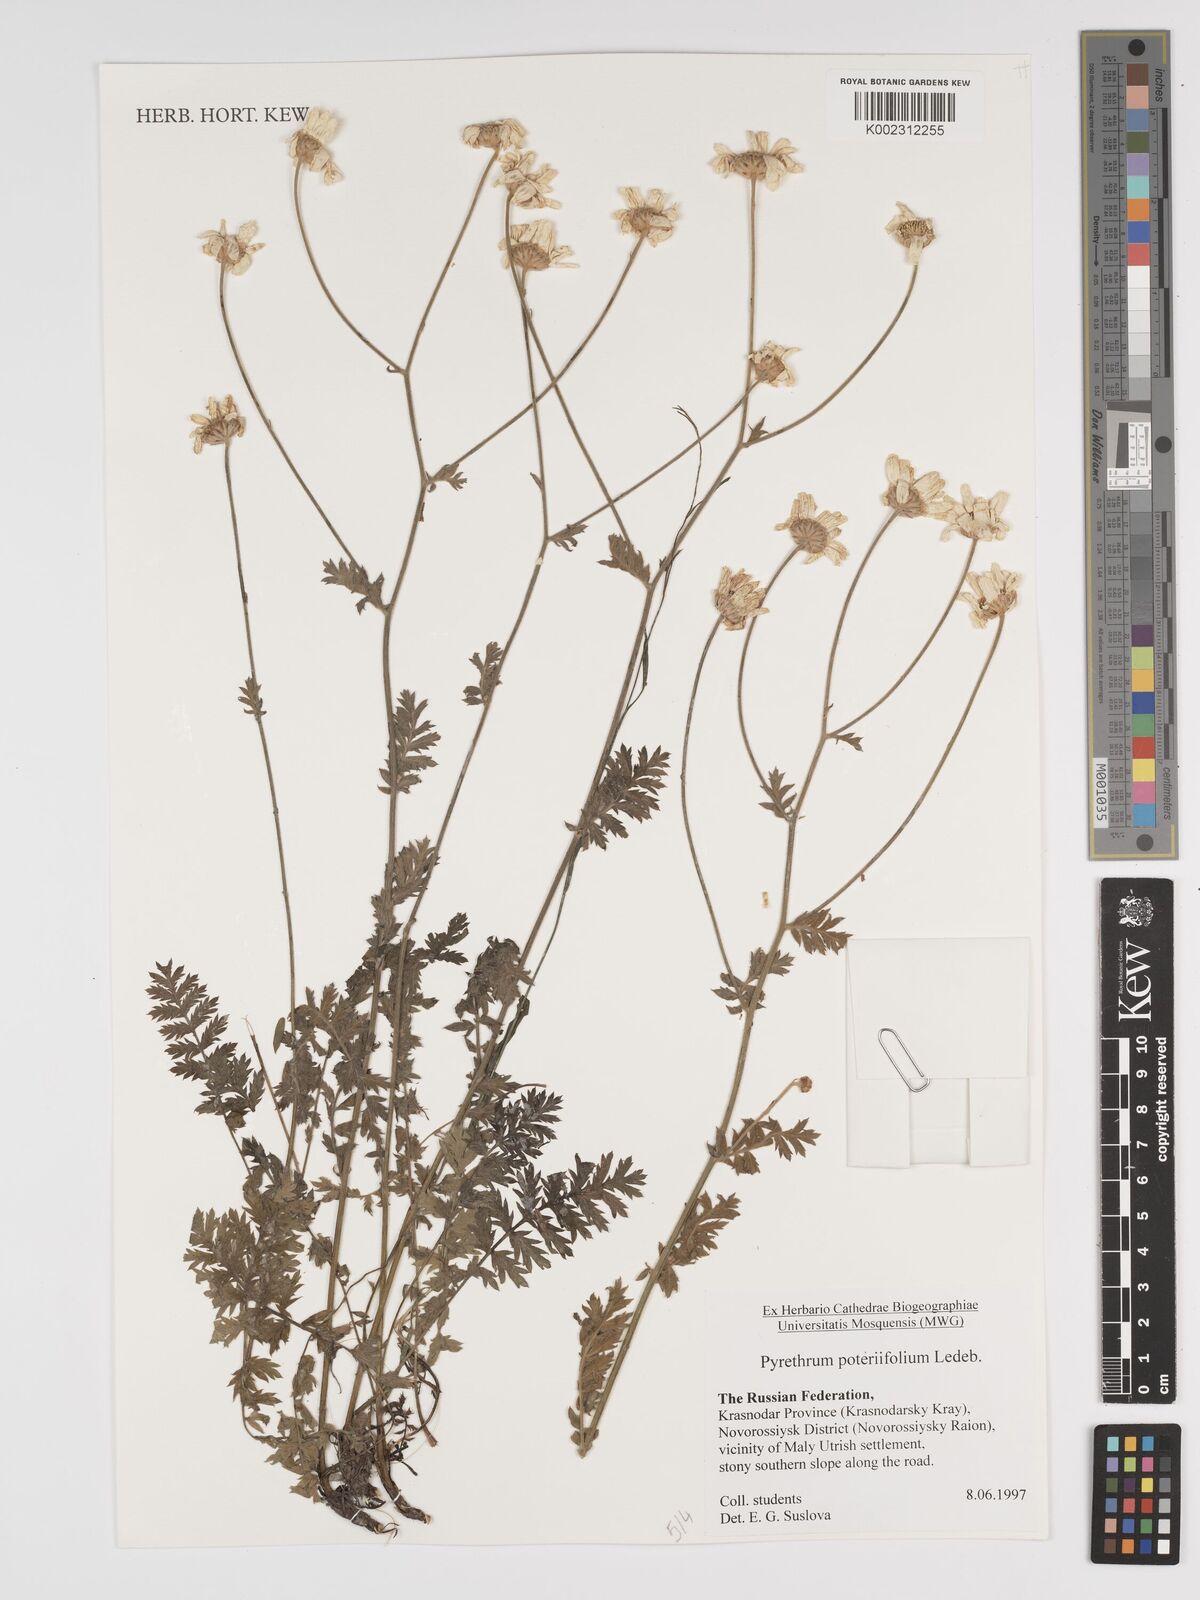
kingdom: Plantae
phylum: Tracheophyta
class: Magnoliopsida
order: Asterales
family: Asteraceae
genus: Tanacetum
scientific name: Tanacetum poteriifolium
